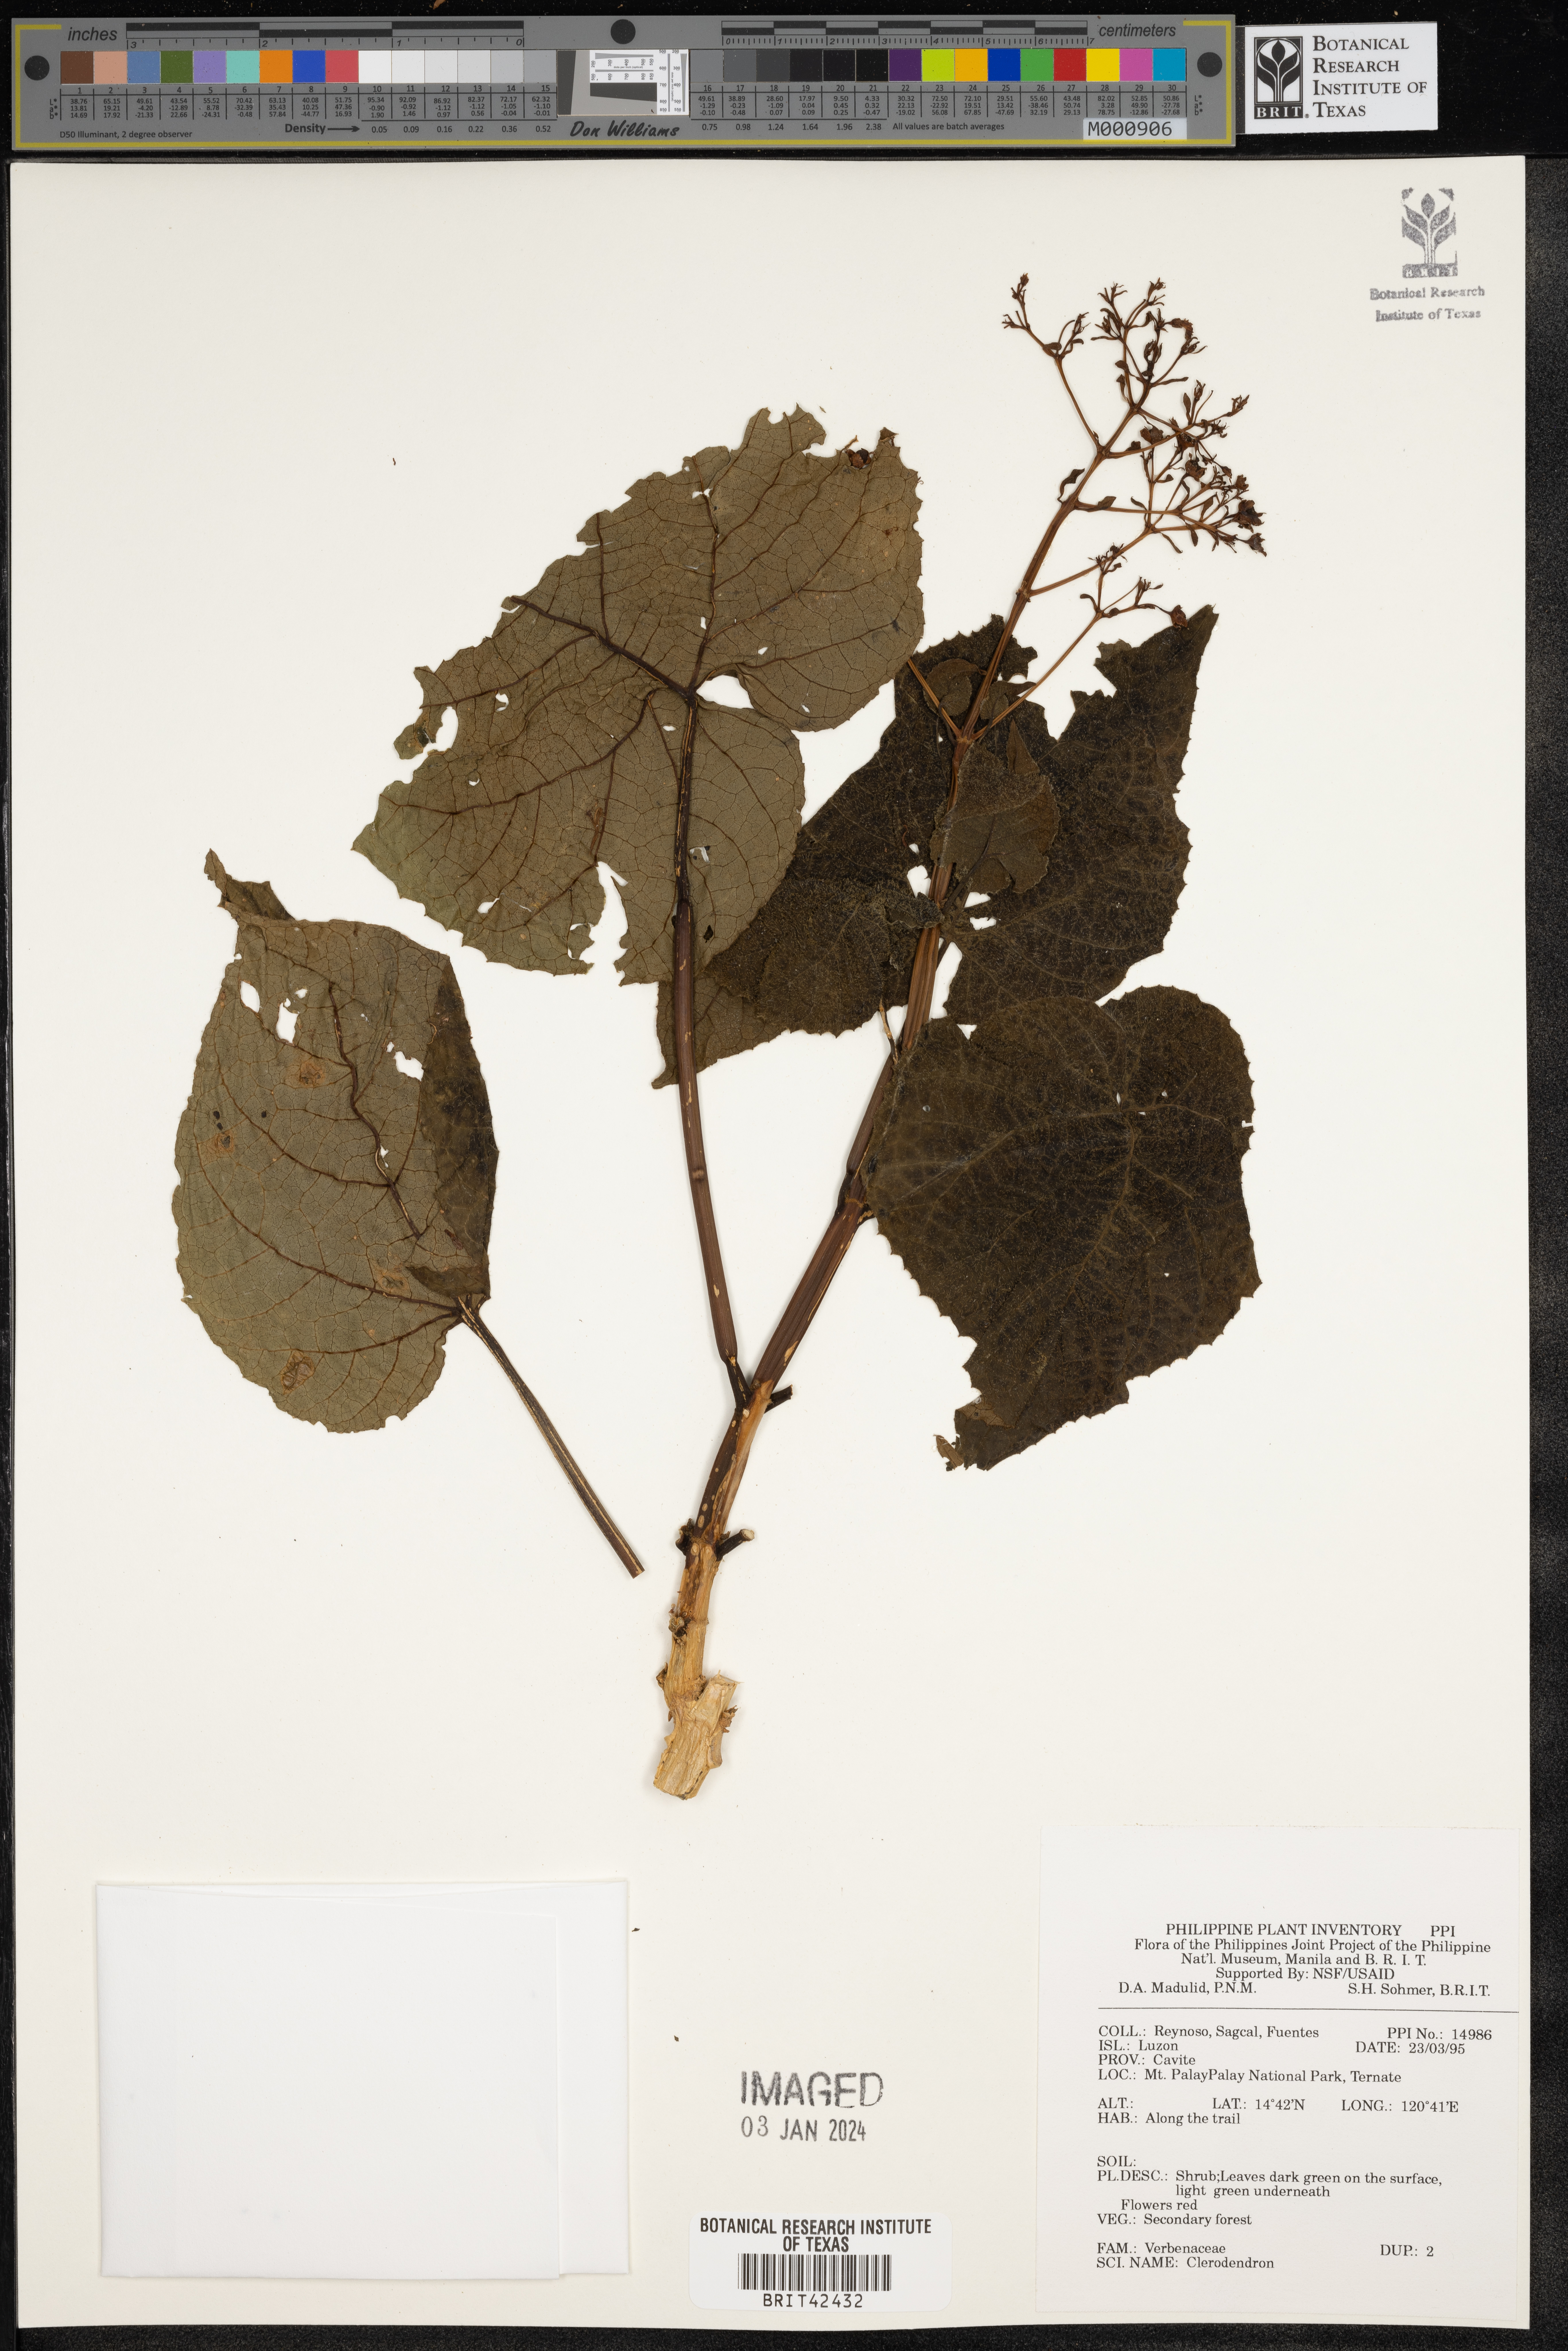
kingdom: Plantae
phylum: Tracheophyta
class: Magnoliopsida
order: Lamiales
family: Lamiaceae
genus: Clerodendrum
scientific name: Clerodendrum
